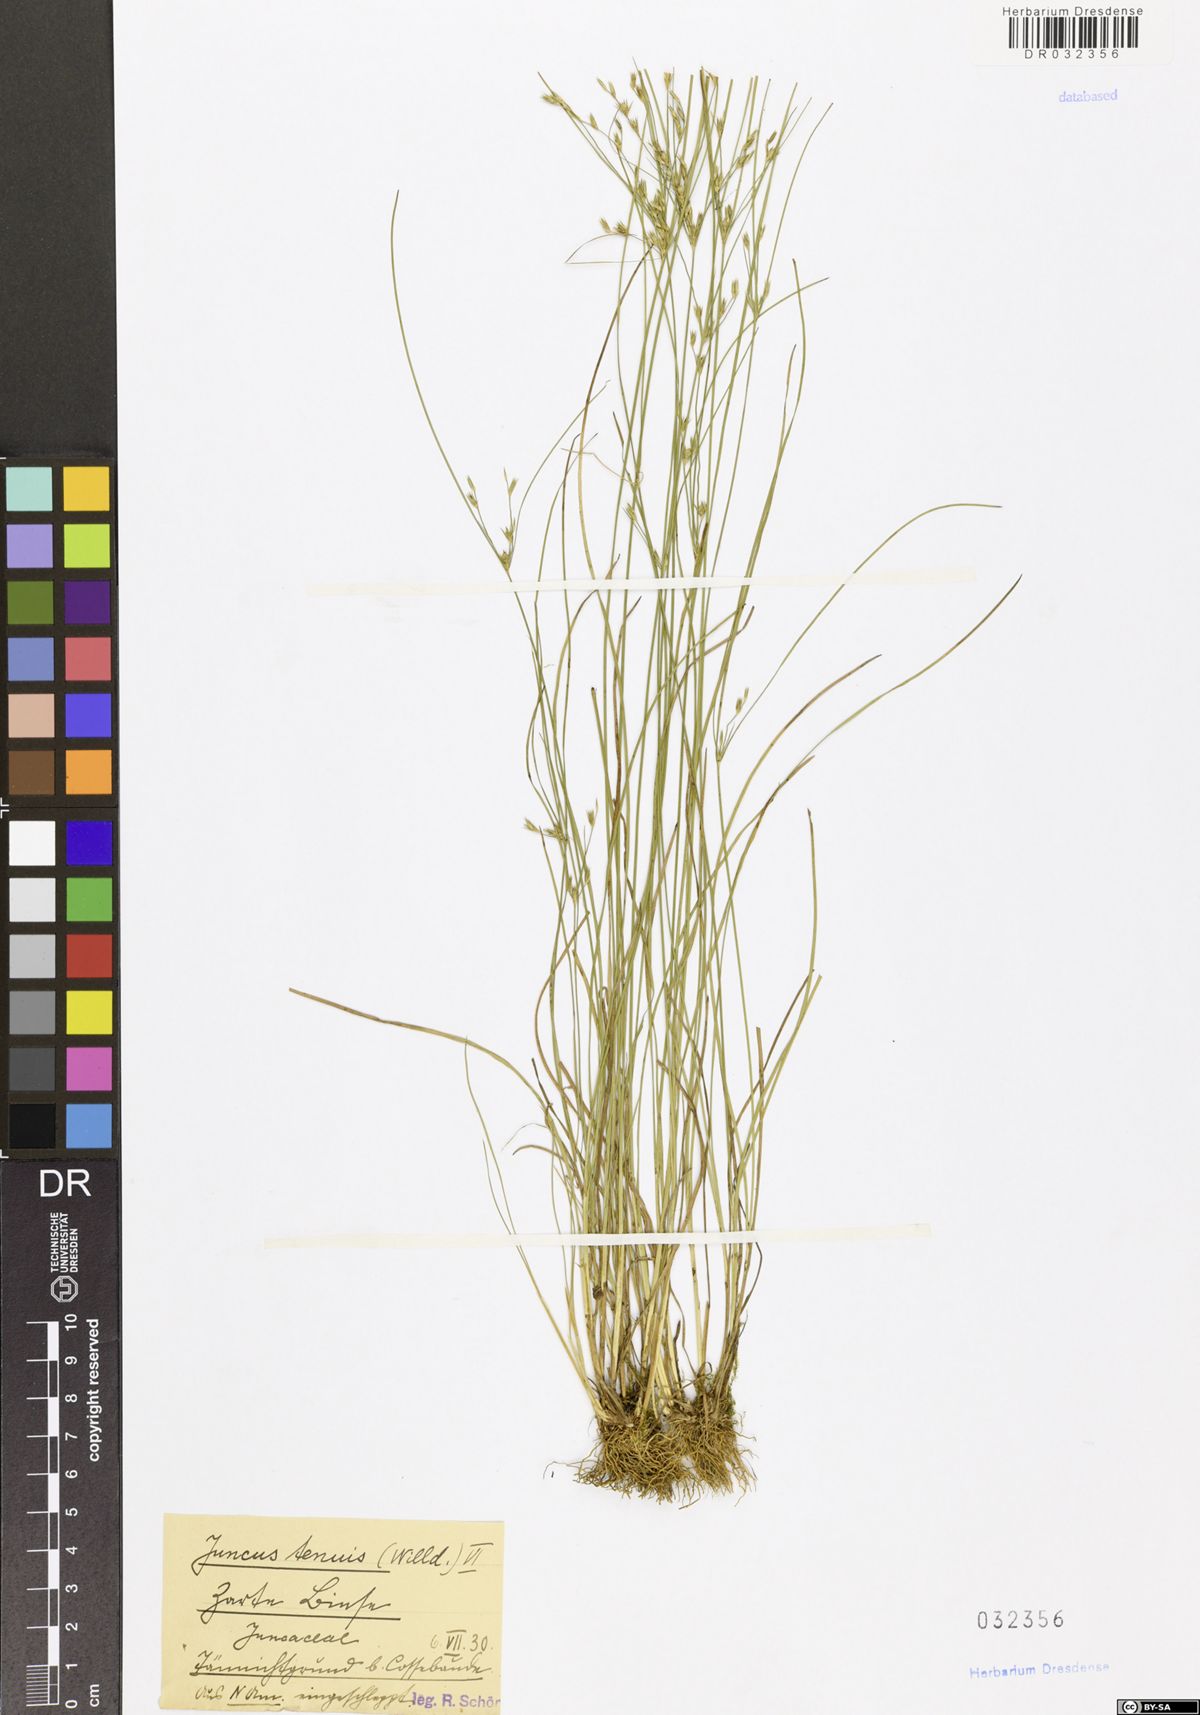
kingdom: Plantae
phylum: Tracheophyta
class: Liliopsida
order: Poales
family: Juncaceae
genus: Juncus
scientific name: Juncus tenuis
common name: Slender rush
